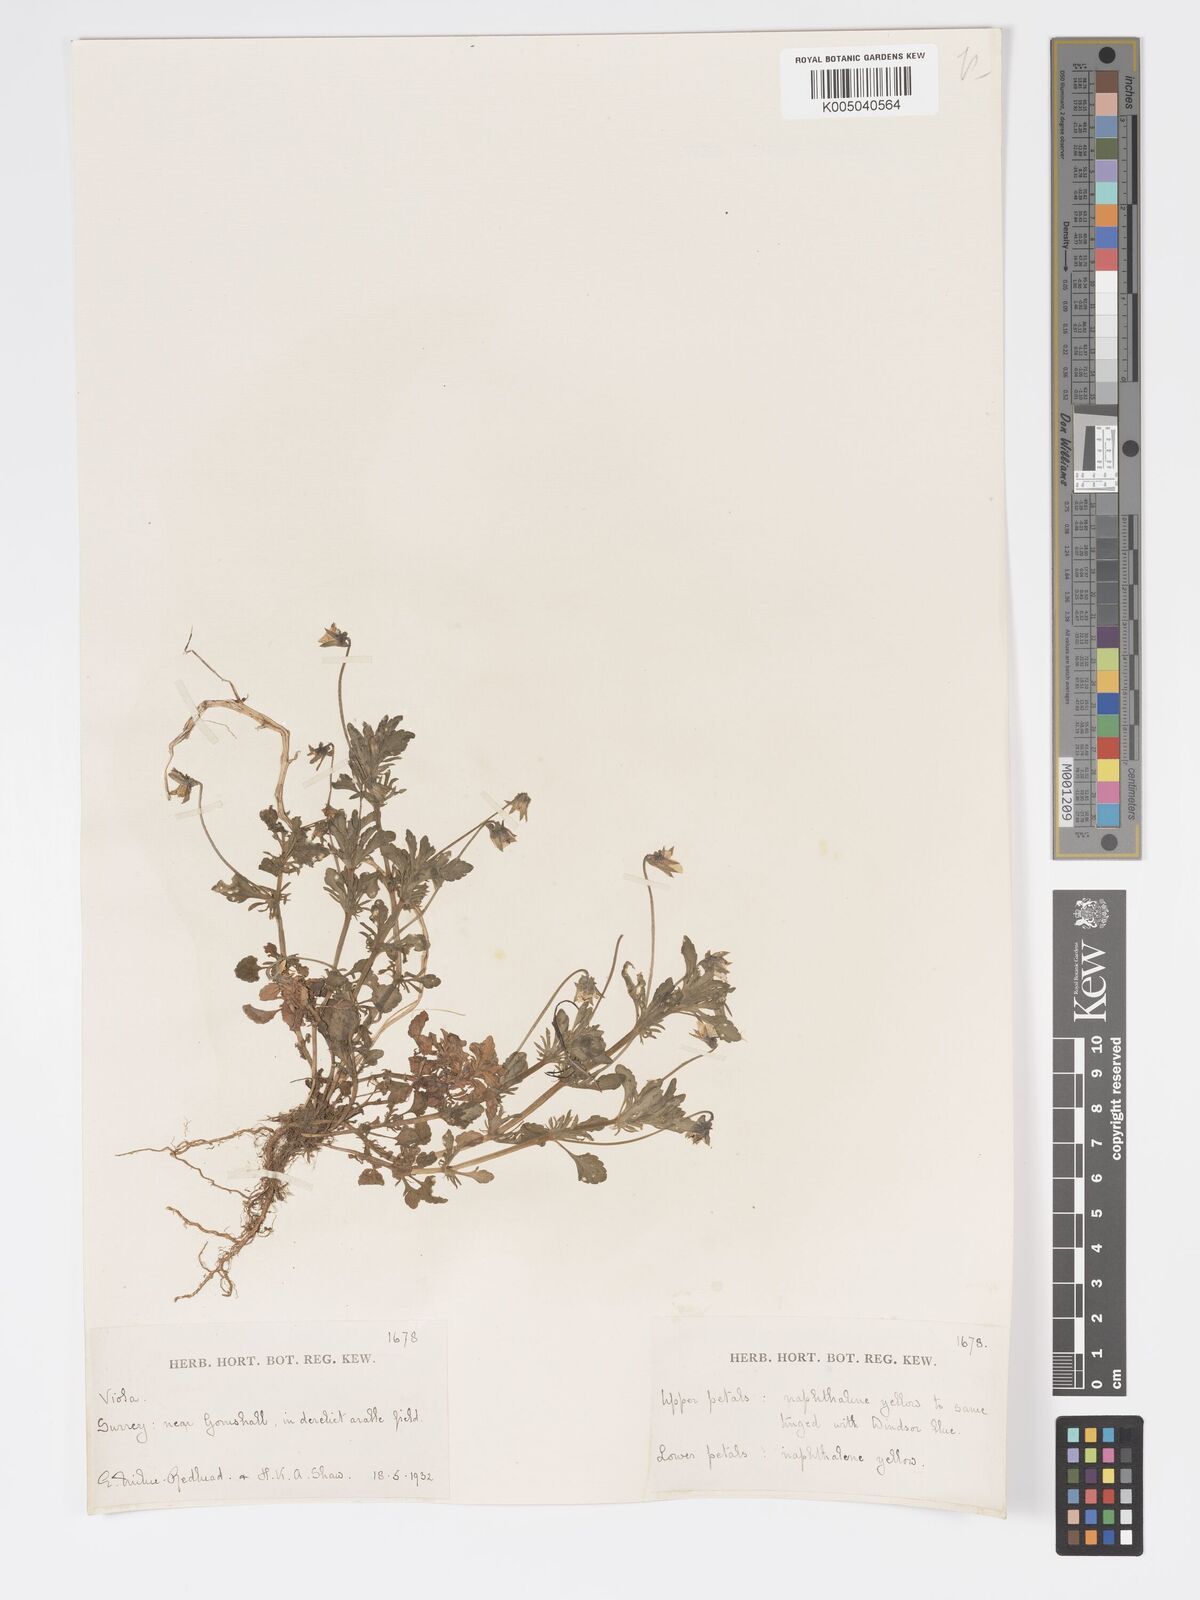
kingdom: Plantae
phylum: Tracheophyta
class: Magnoliopsida
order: Malpighiales
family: Violaceae
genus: Viola
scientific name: Viola
